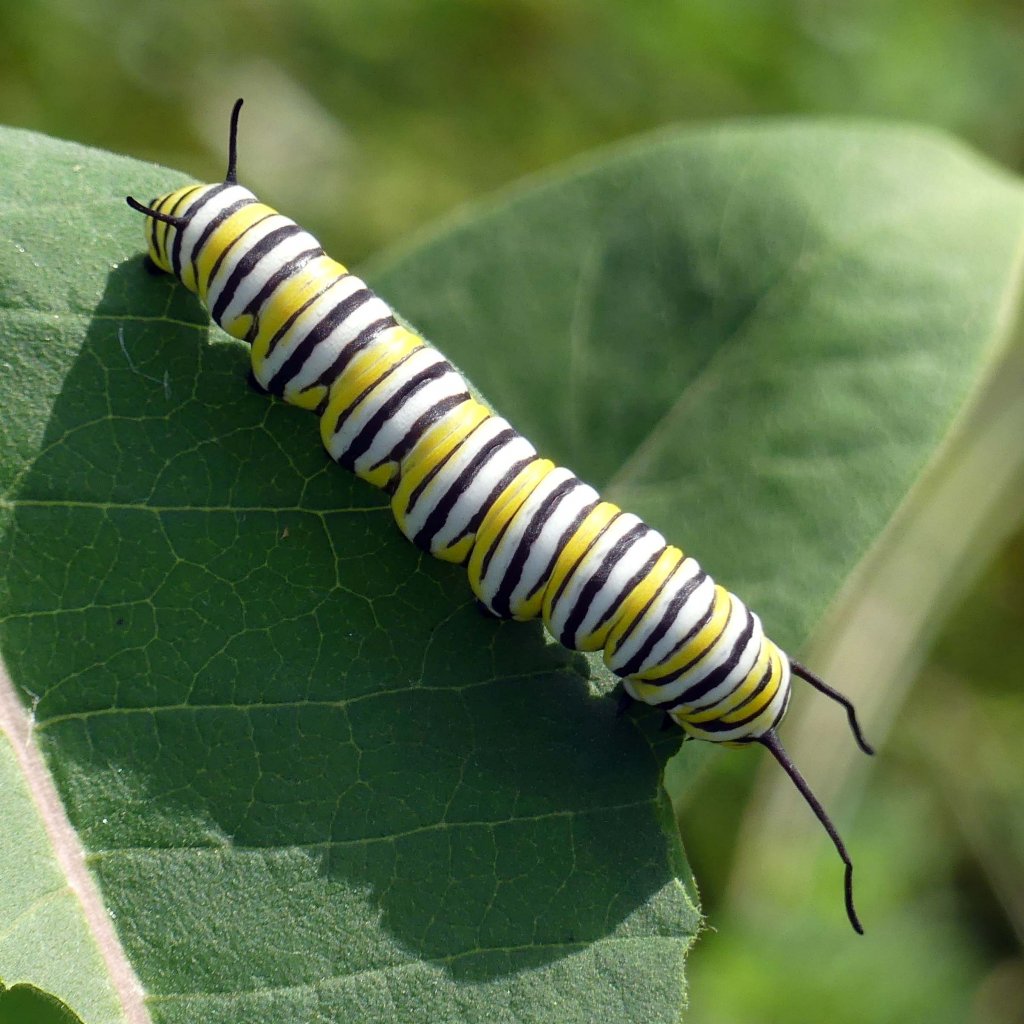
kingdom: Animalia
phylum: Arthropoda
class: Insecta
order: Lepidoptera
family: Nymphalidae
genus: Danaus
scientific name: Danaus plexippus
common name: Monarch
